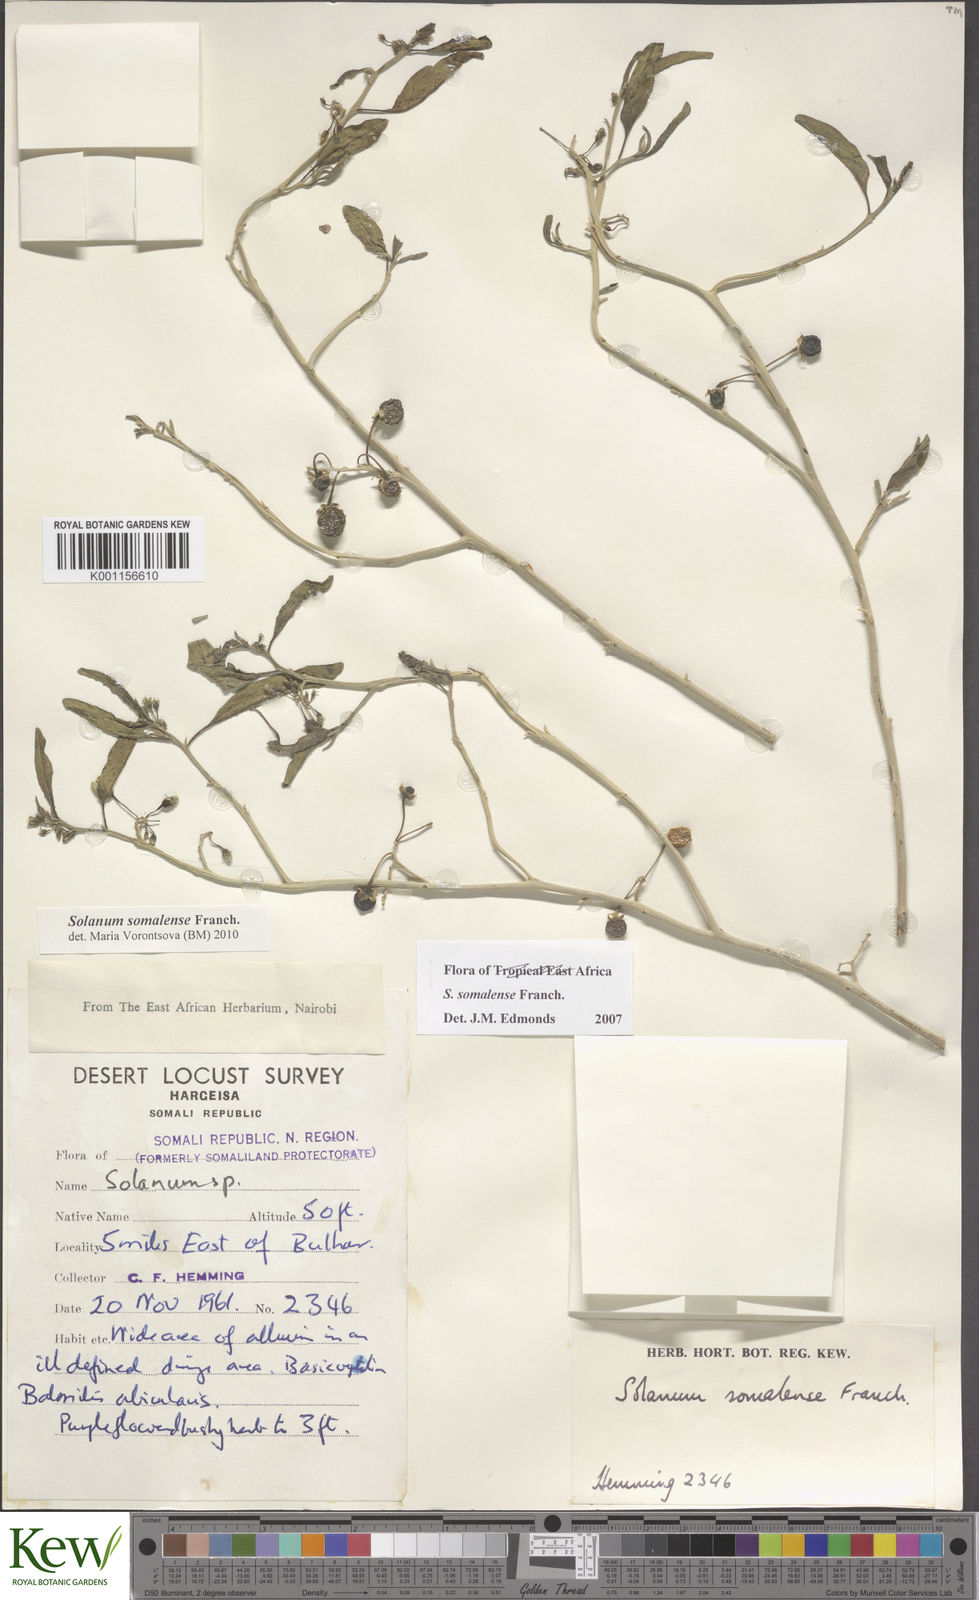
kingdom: Plantae
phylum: Tracheophyta
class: Magnoliopsida
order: Solanales
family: Solanaceae
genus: Solanum
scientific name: Solanum somalense
